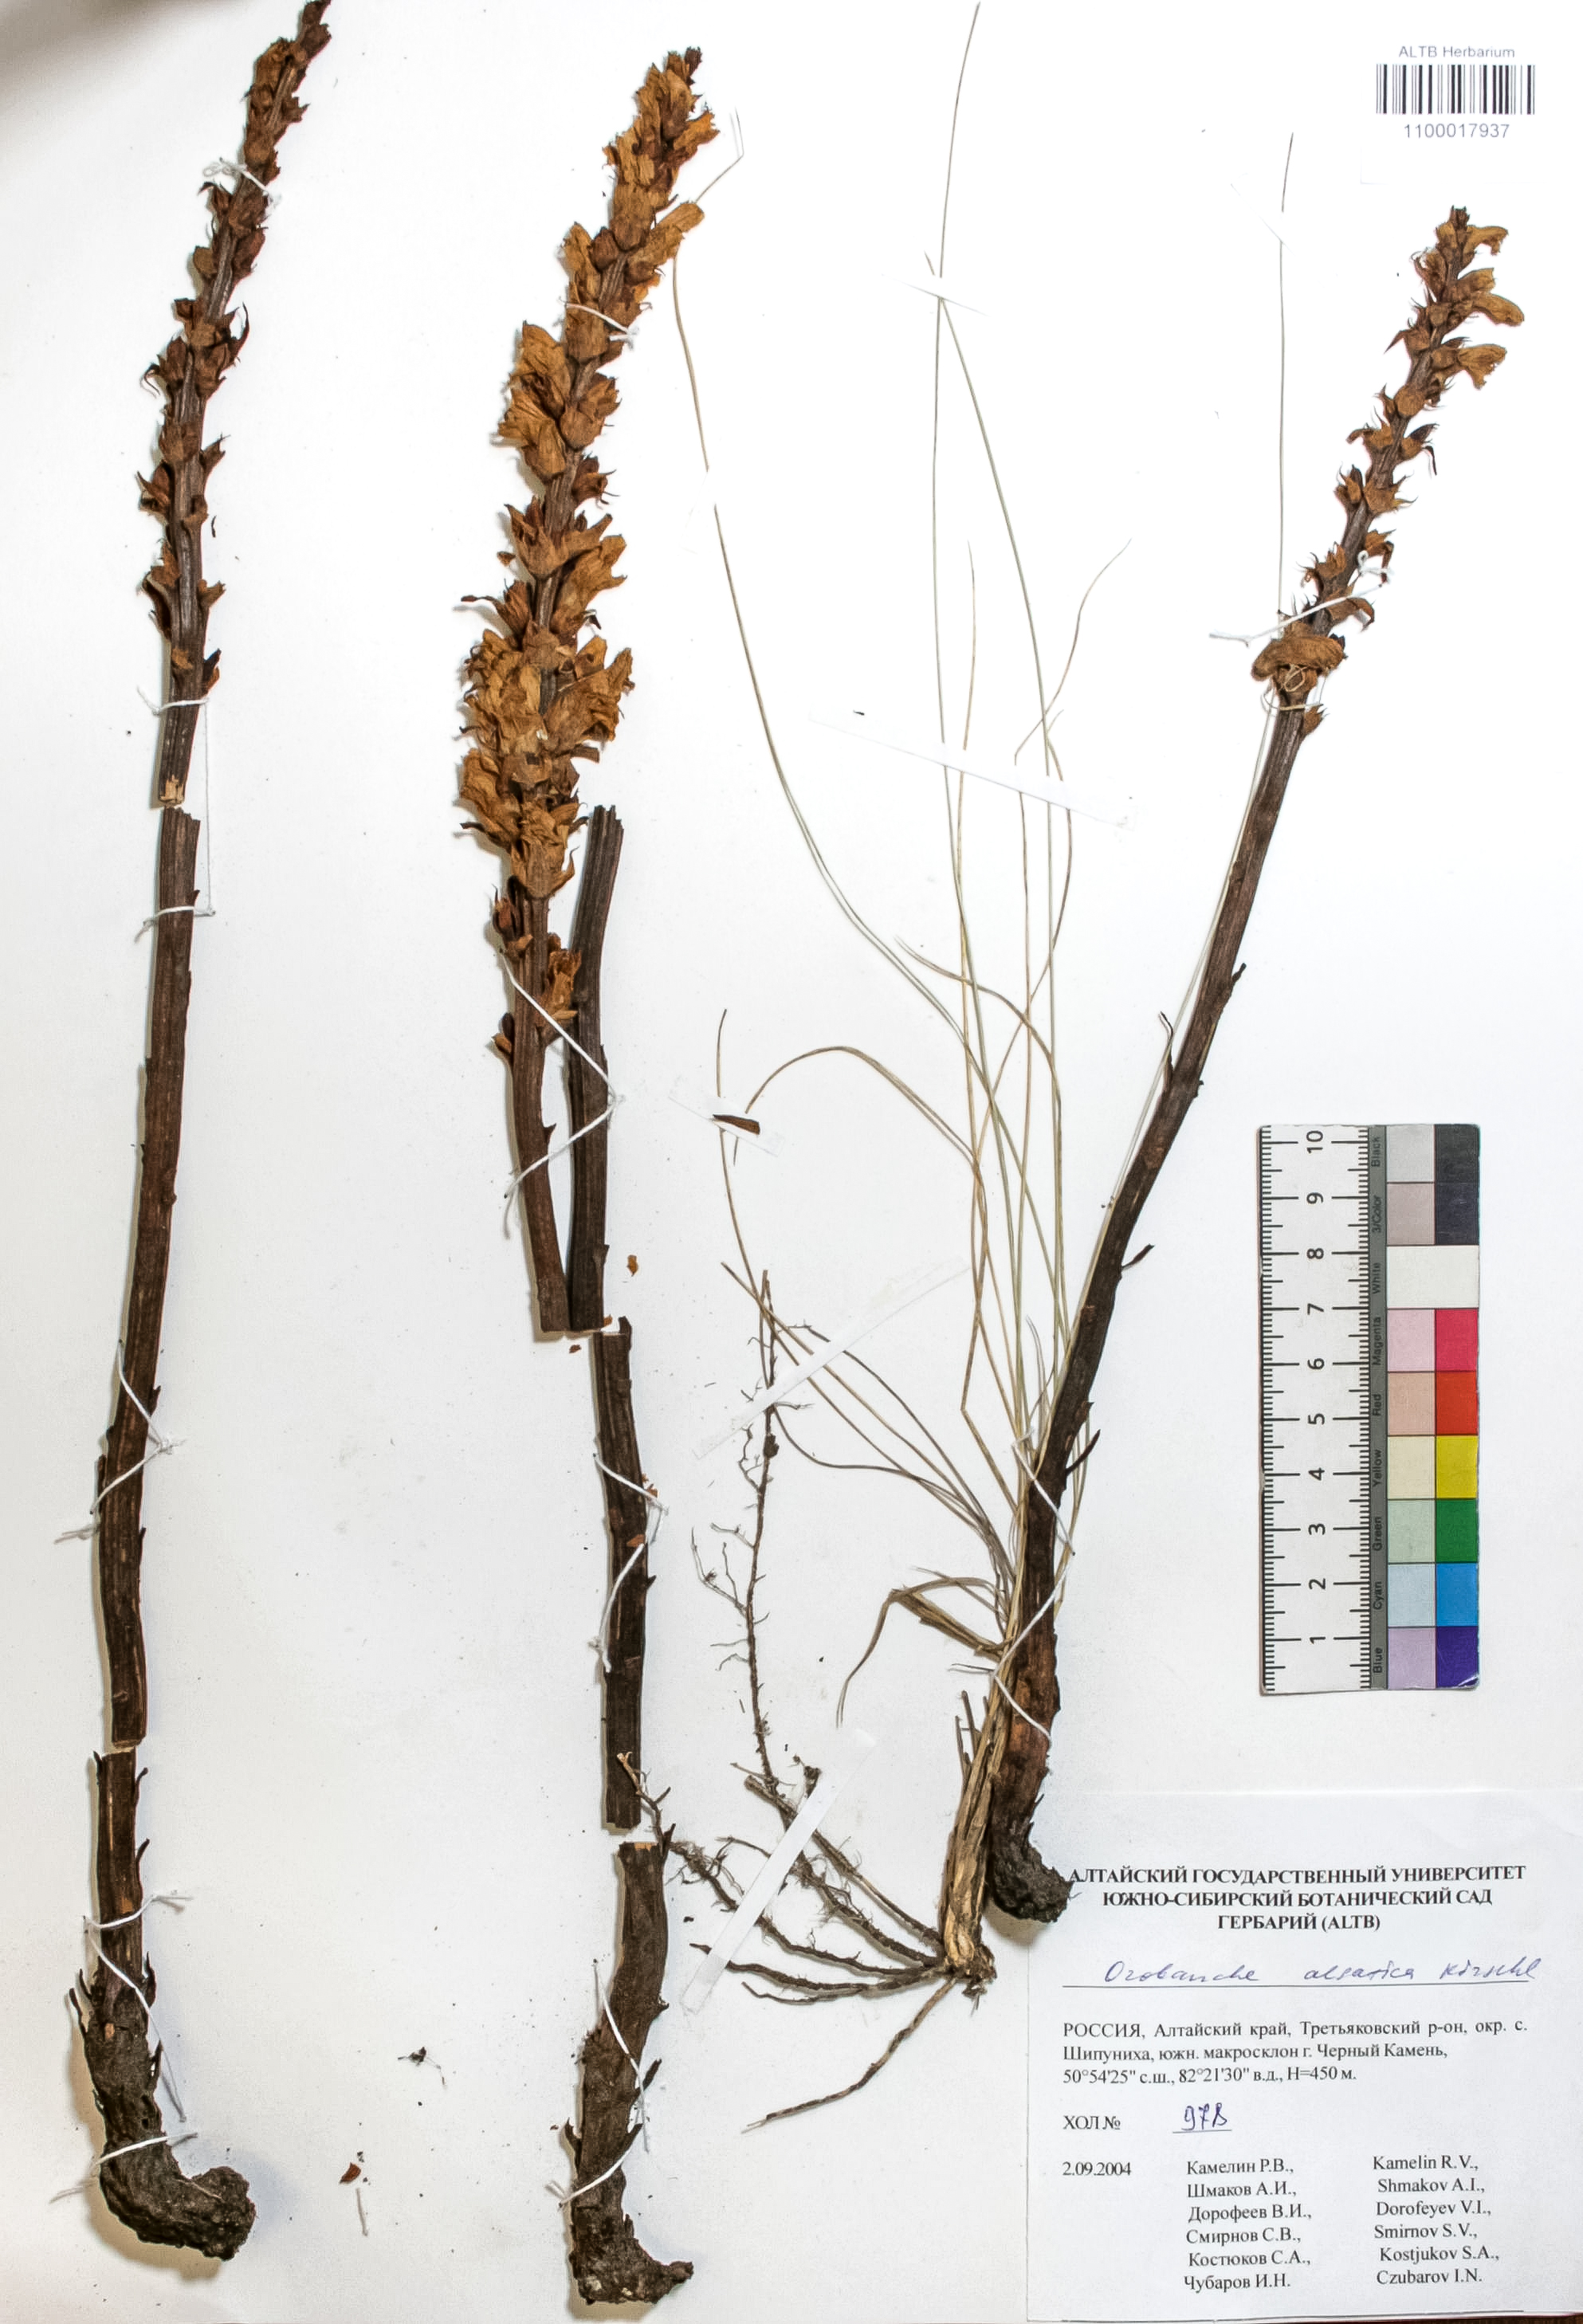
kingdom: Plantae
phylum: Tracheophyta
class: Magnoliopsida
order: Lamiales
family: Orobanchaceae
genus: Orobanche
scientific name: Orobanche alsatica
